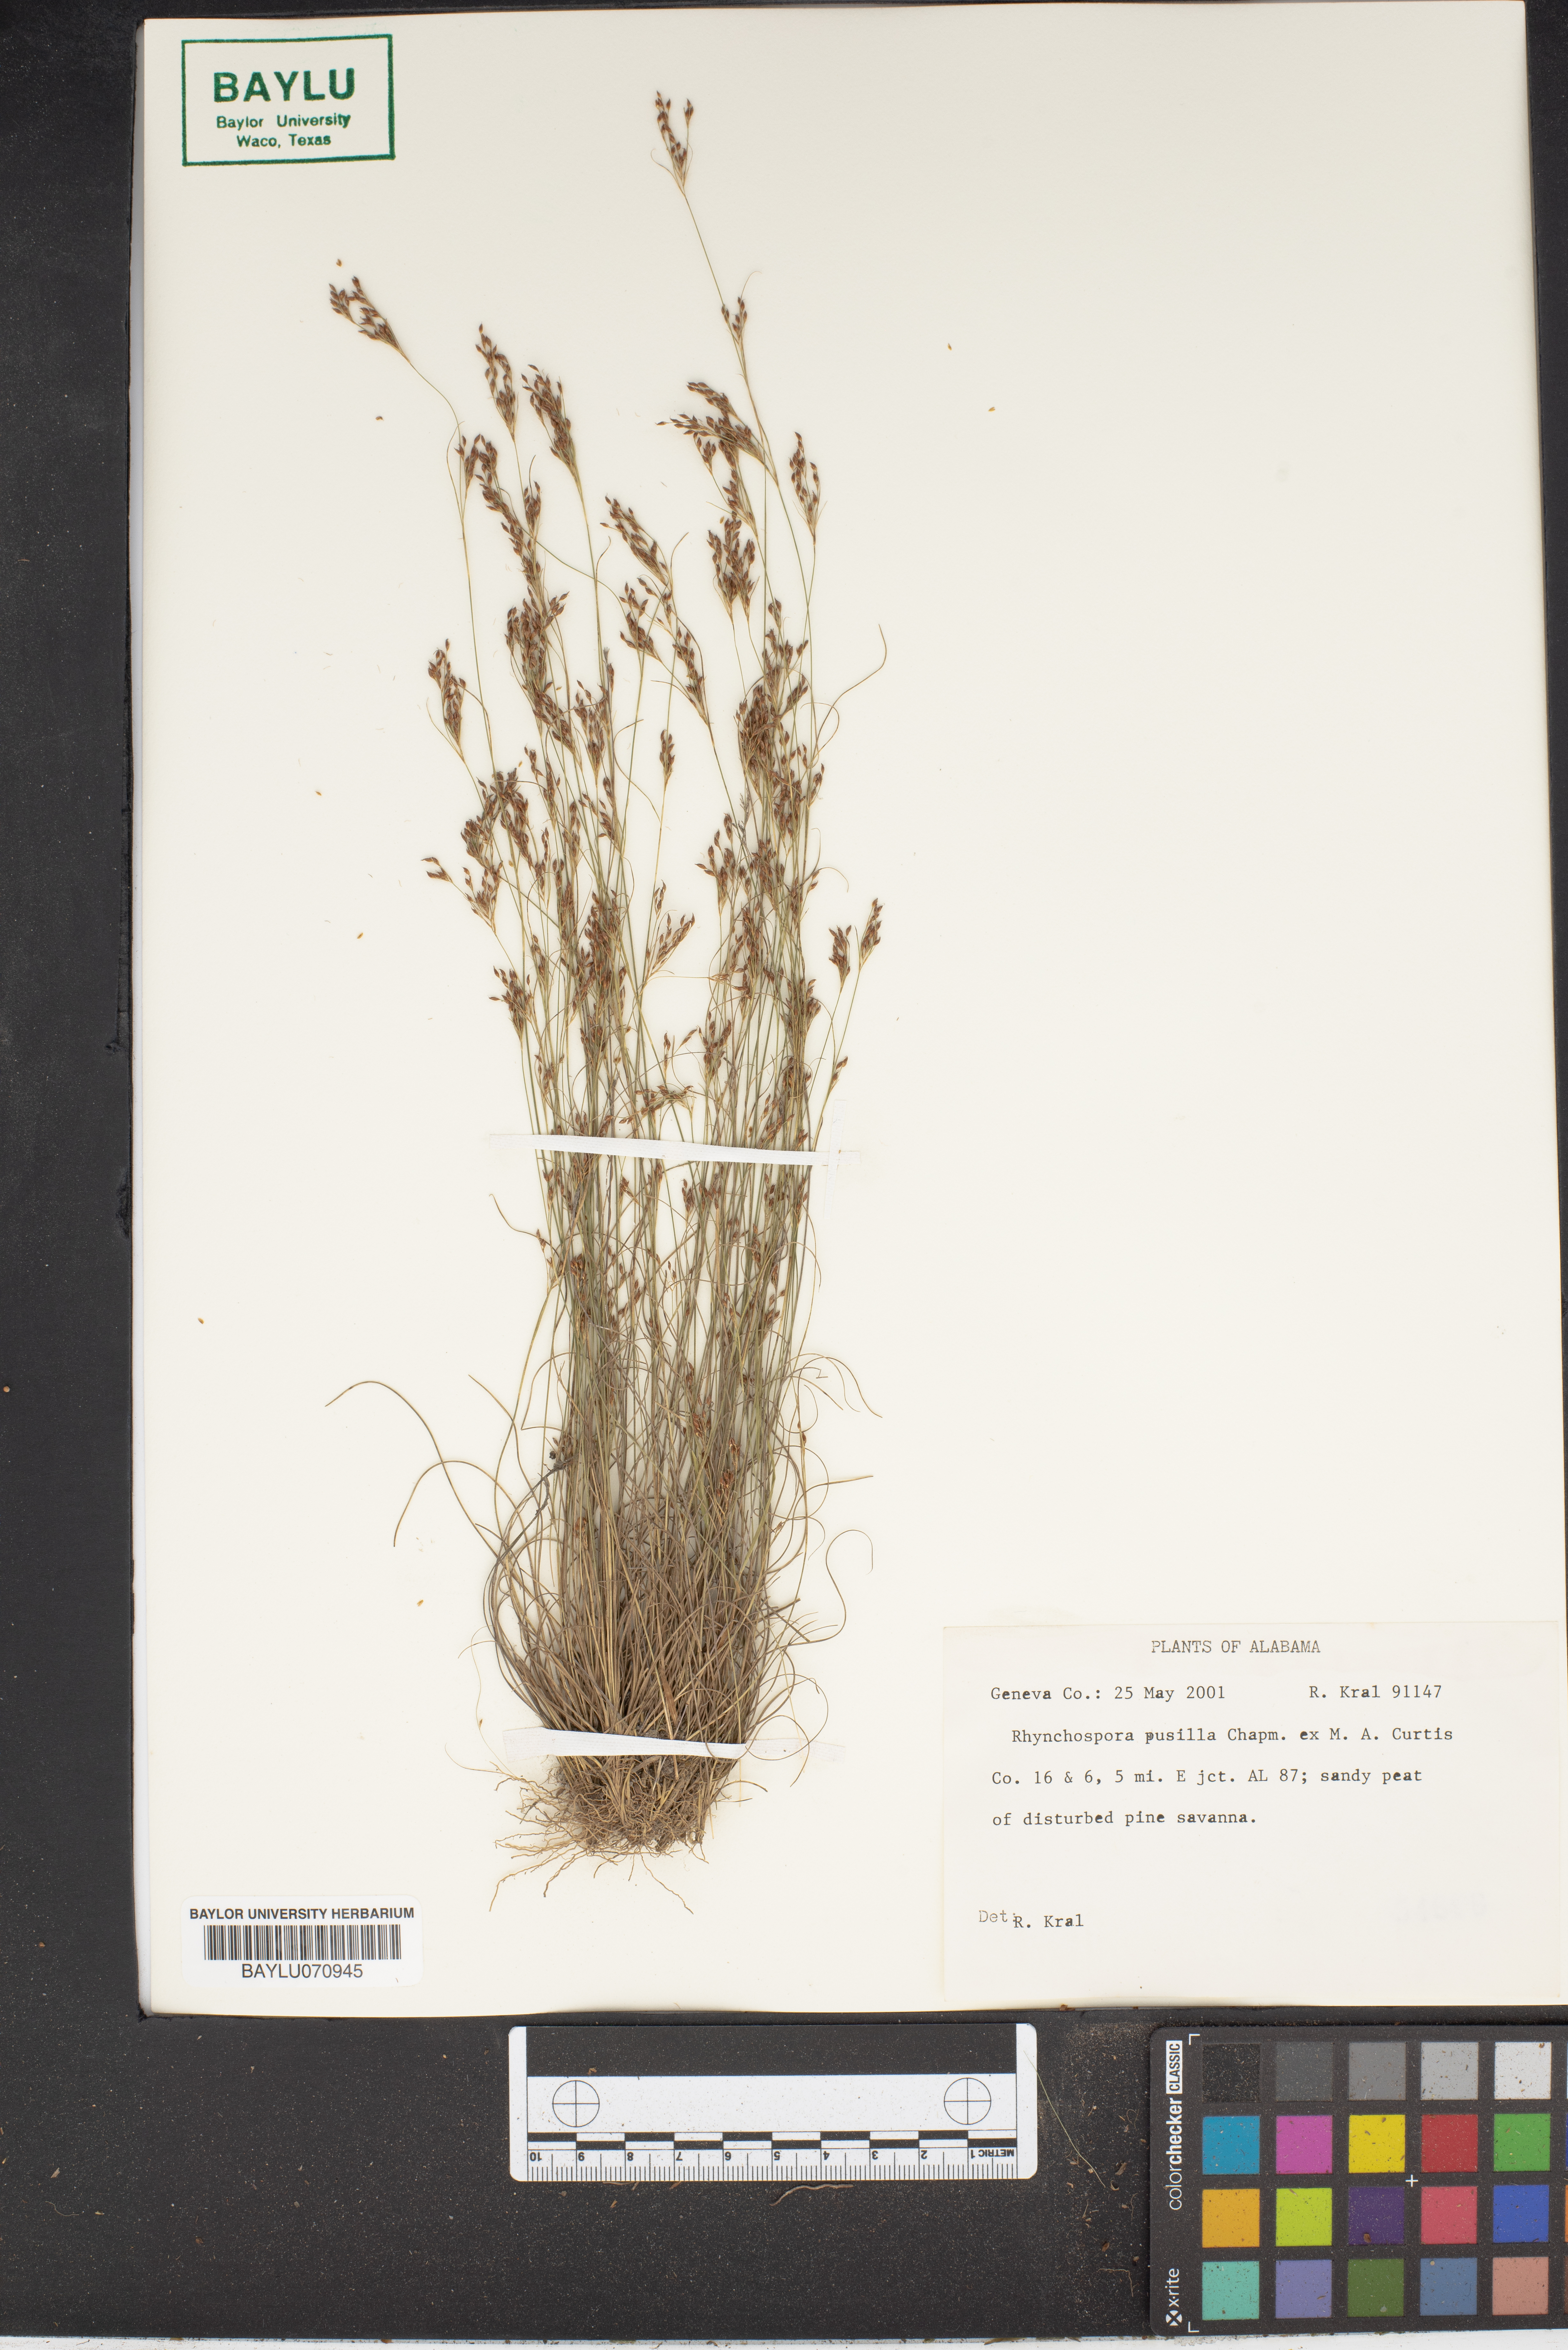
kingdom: Plantae
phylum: Tracheophyta
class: Liliopsida
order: Poales
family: Cyperaceae
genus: Rhynchospora
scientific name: Rhynchospora pusilla
